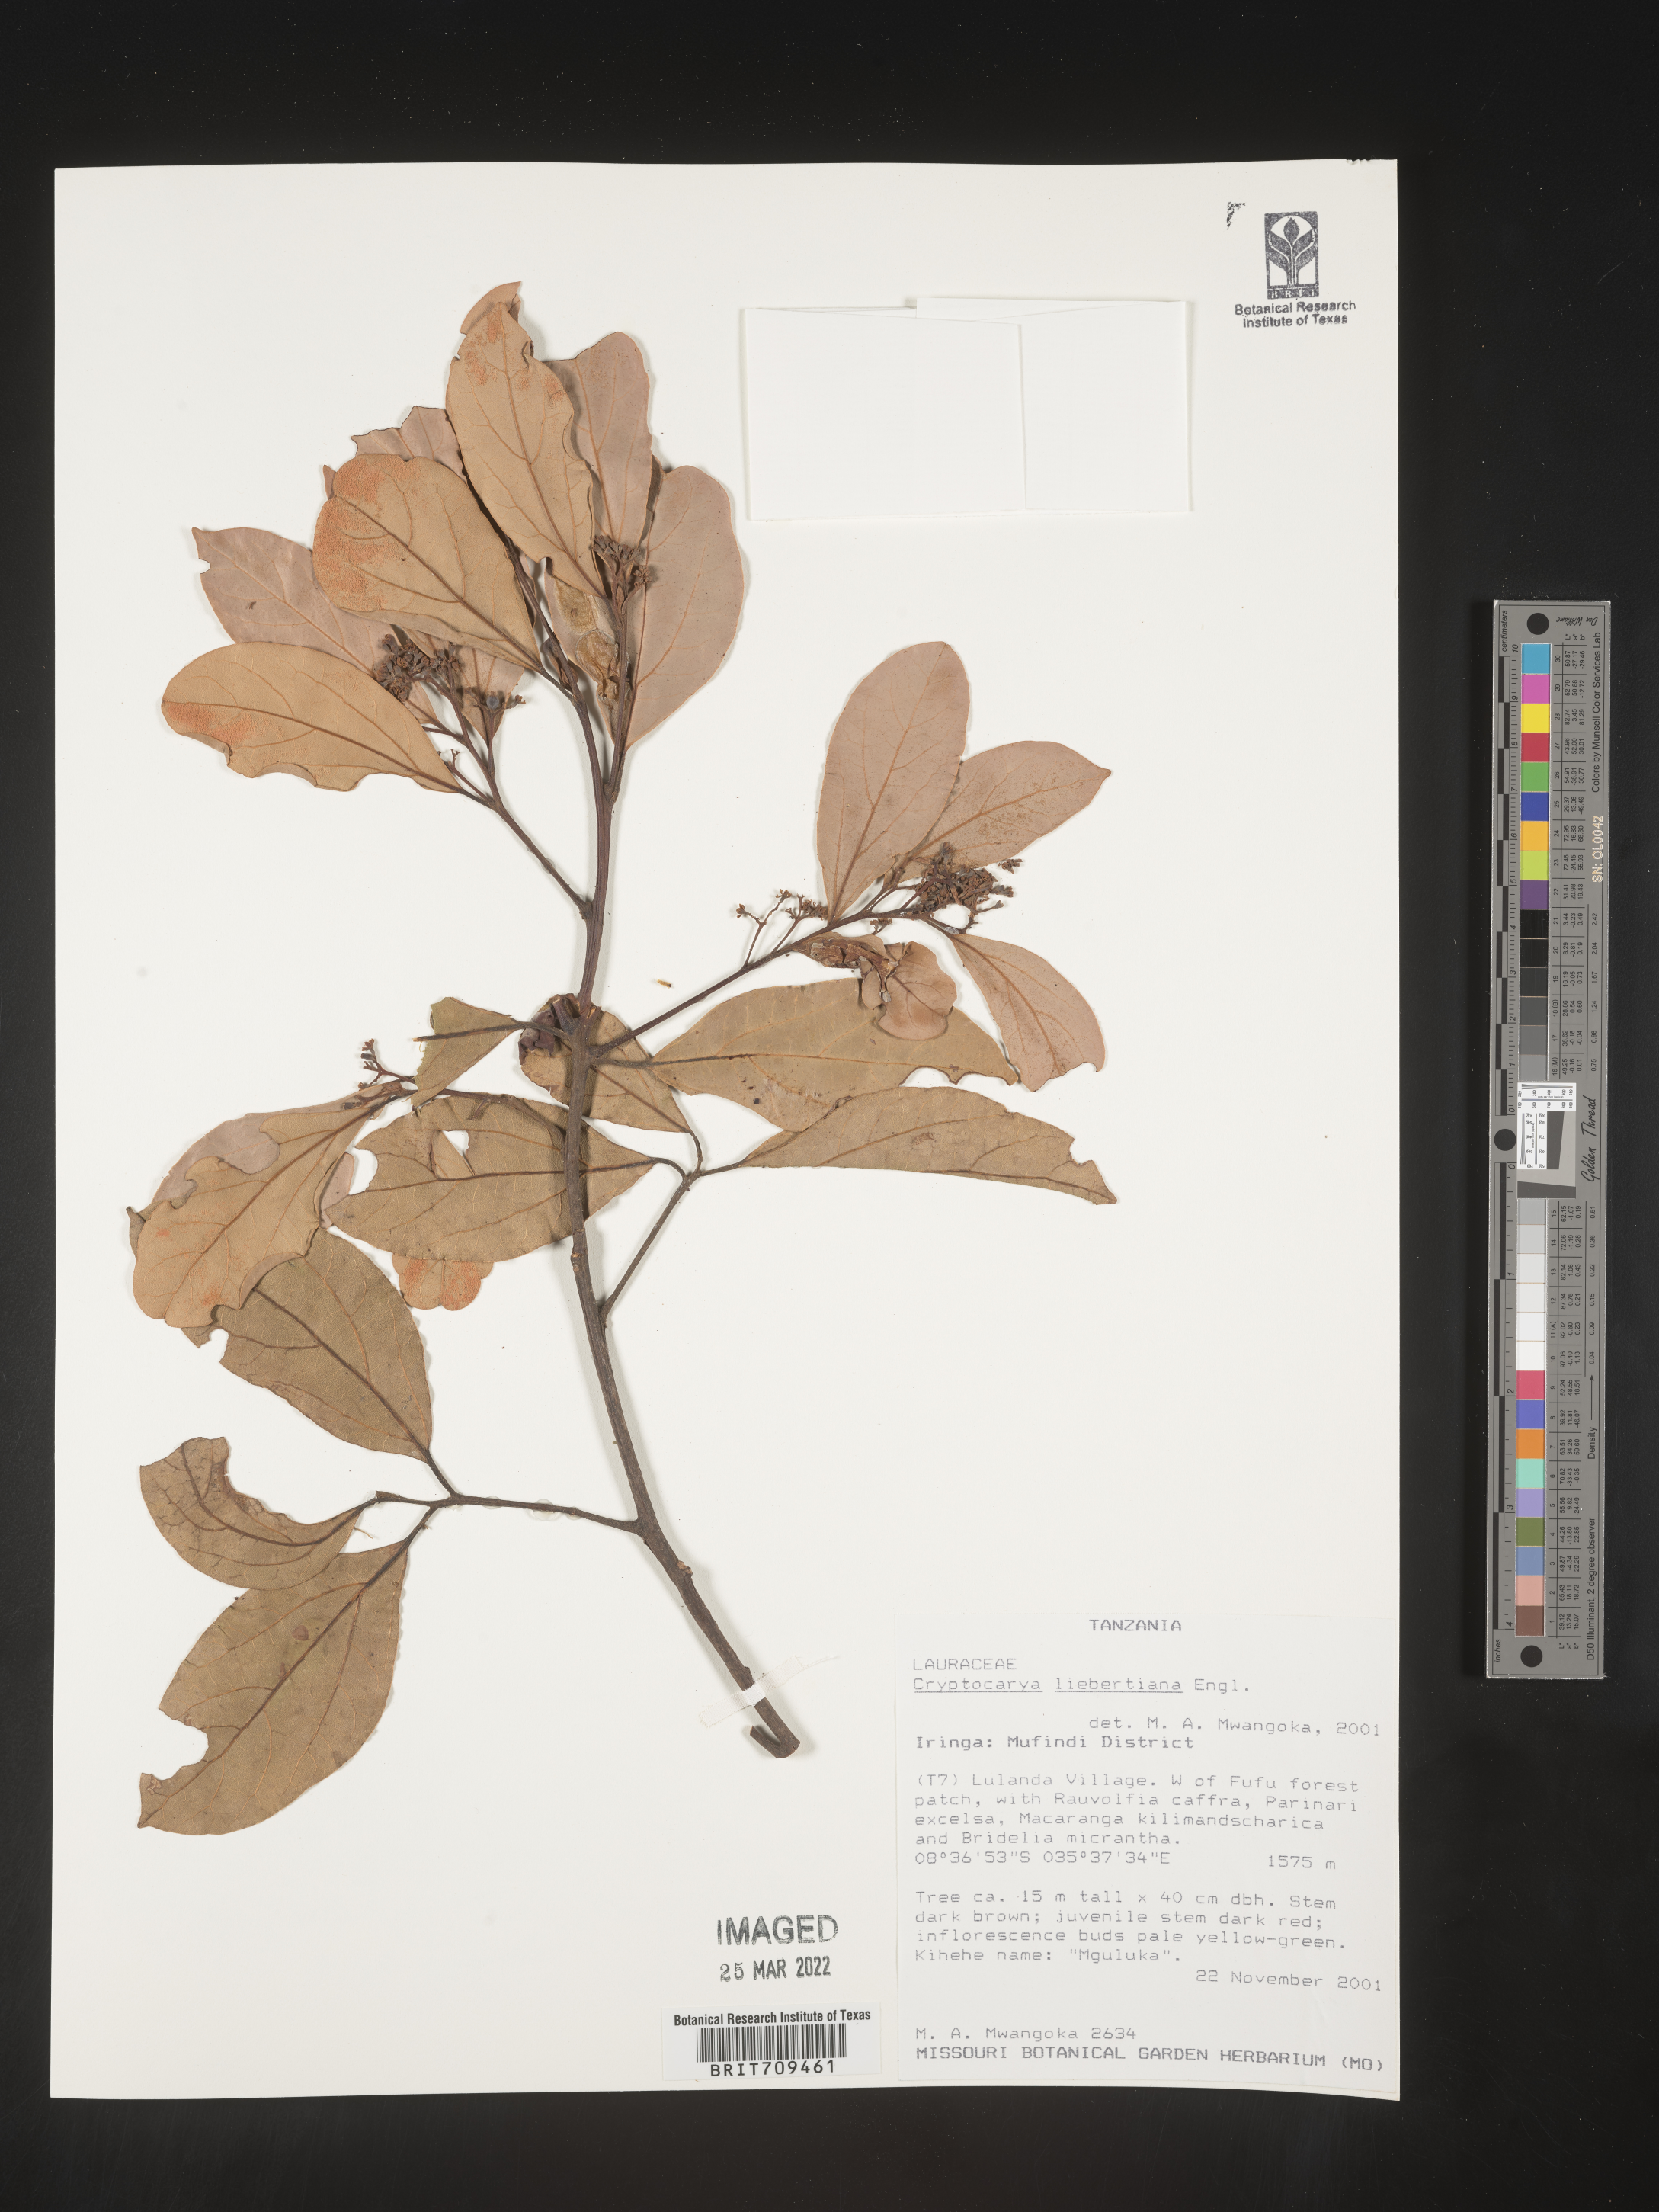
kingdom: Plantae
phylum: Tracheophyta
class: Magnoliopsida
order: Laurales
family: Lauraceae
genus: Cryptocarya
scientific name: Cryptocarya
